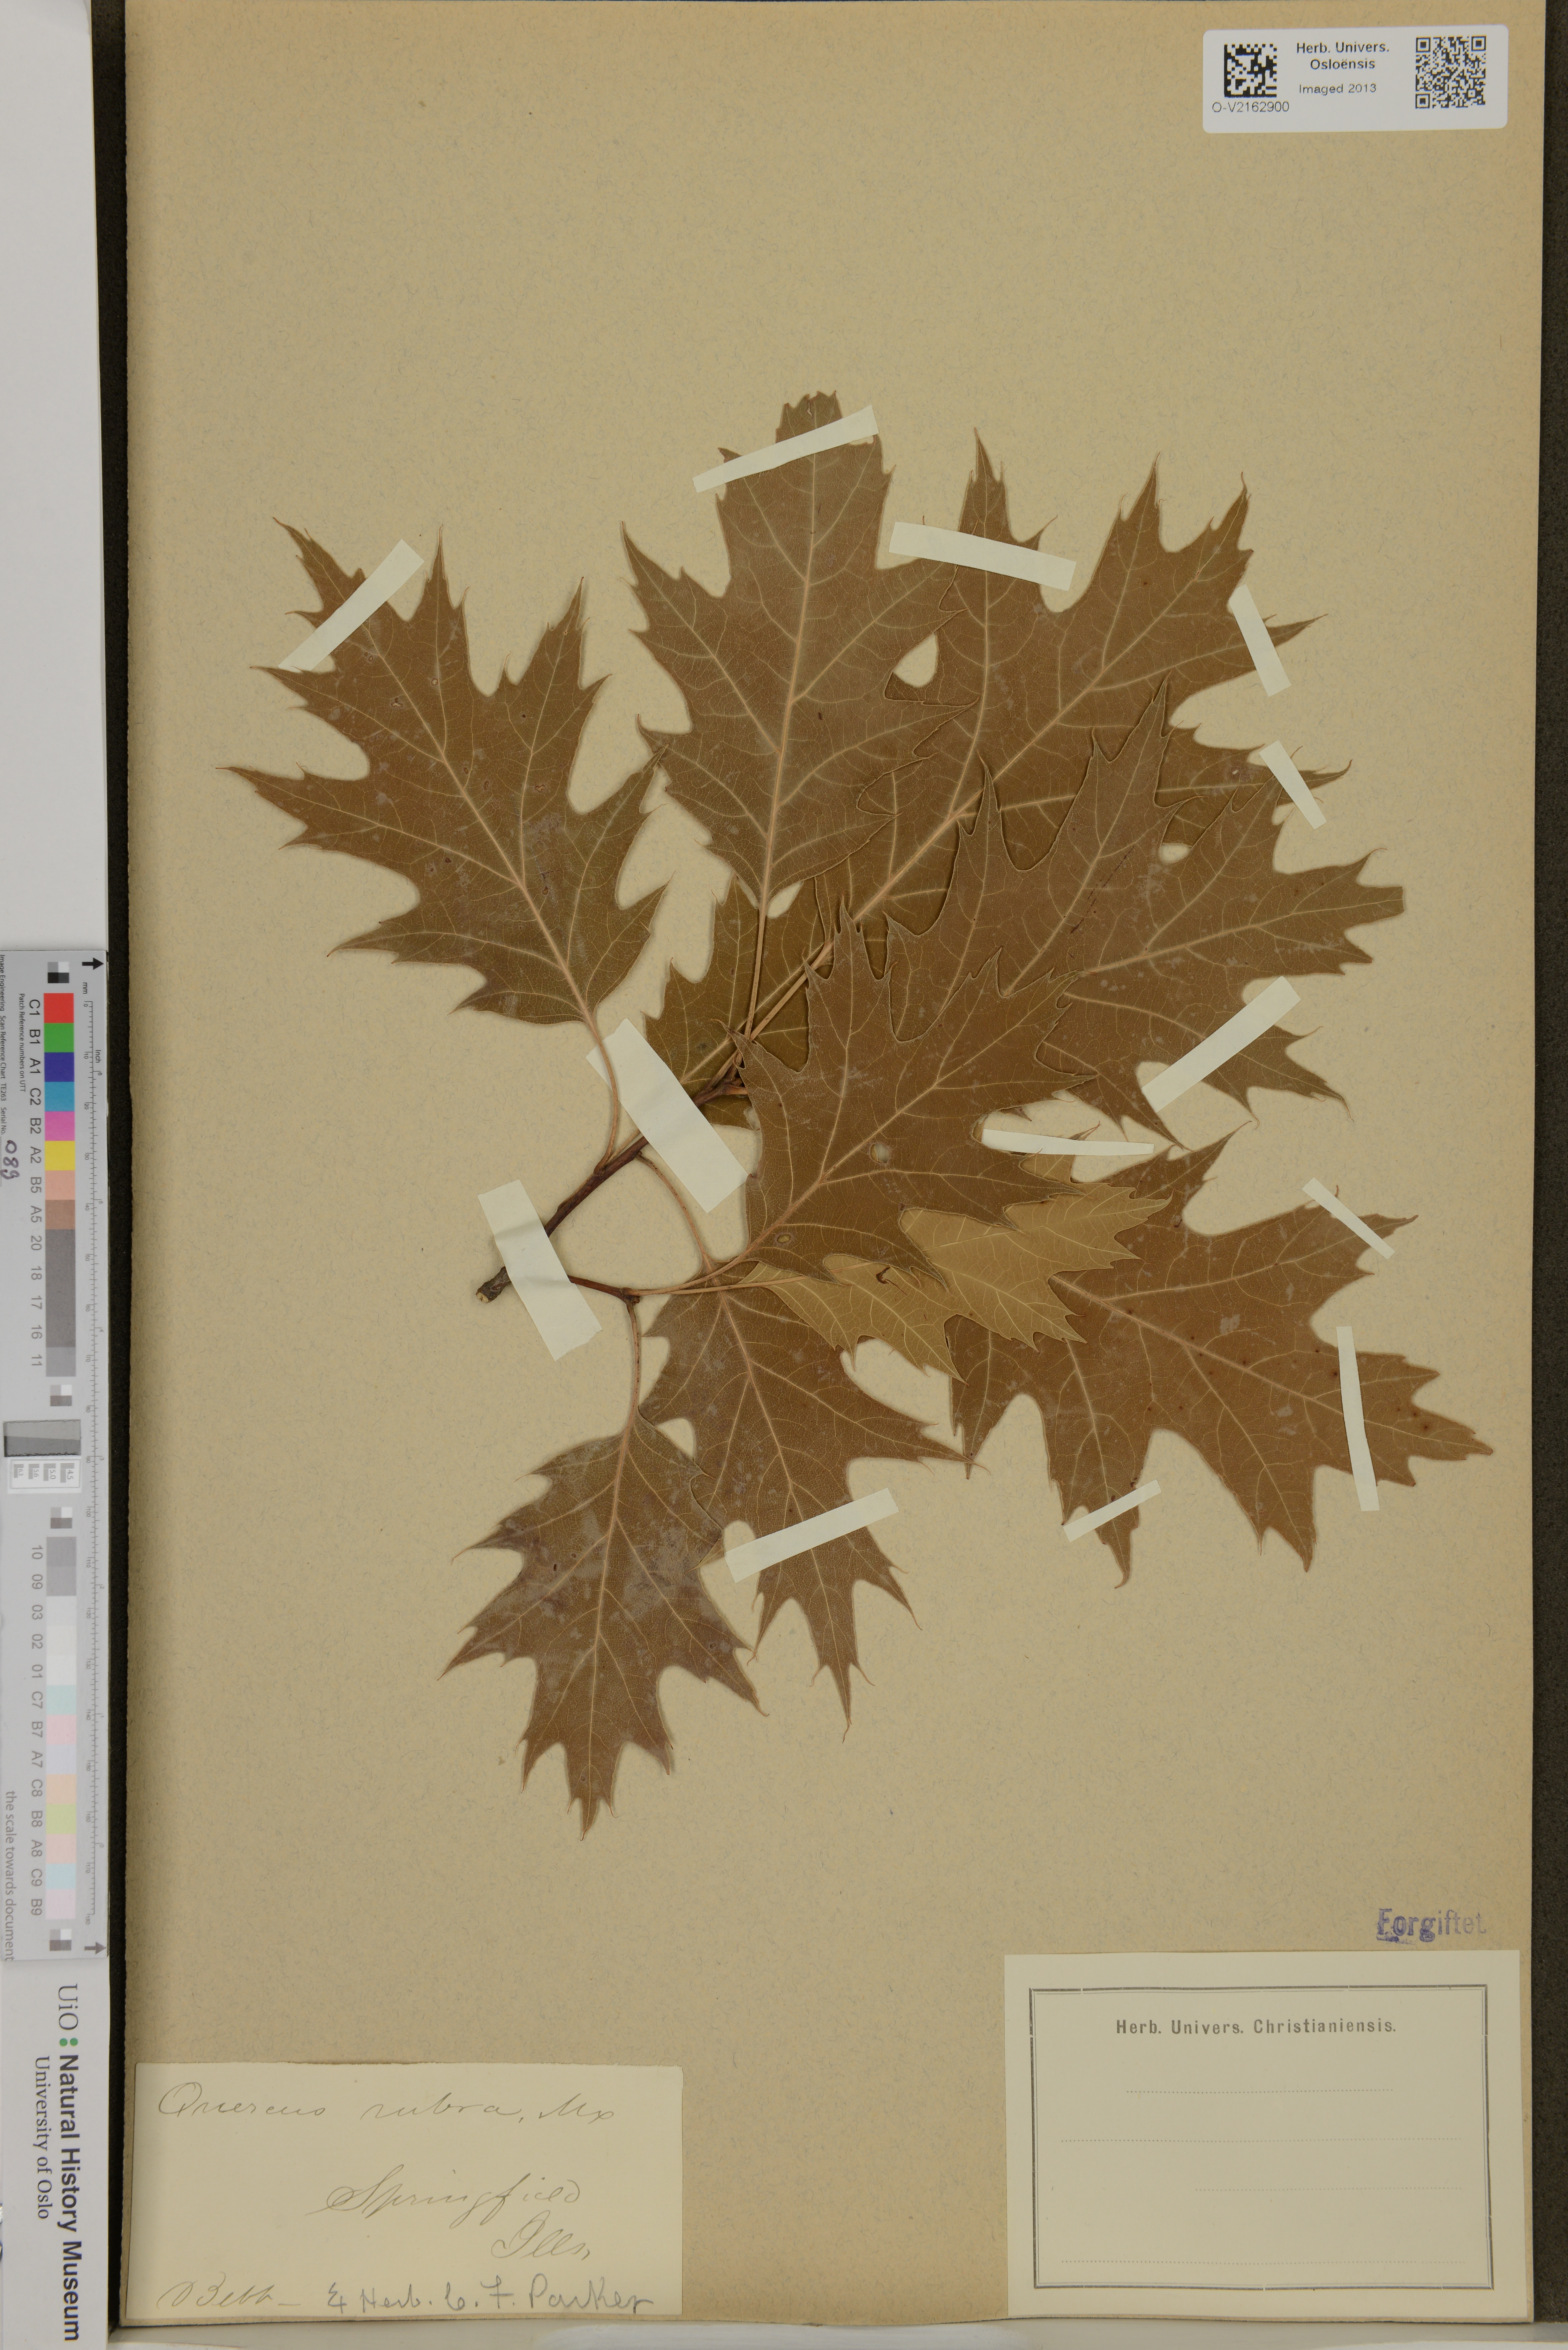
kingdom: Plantae
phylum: Tracheophyta
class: Magnoliopsida
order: Fagales
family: Fagaceae
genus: Quercus
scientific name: Quercus rubra
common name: Red oak
